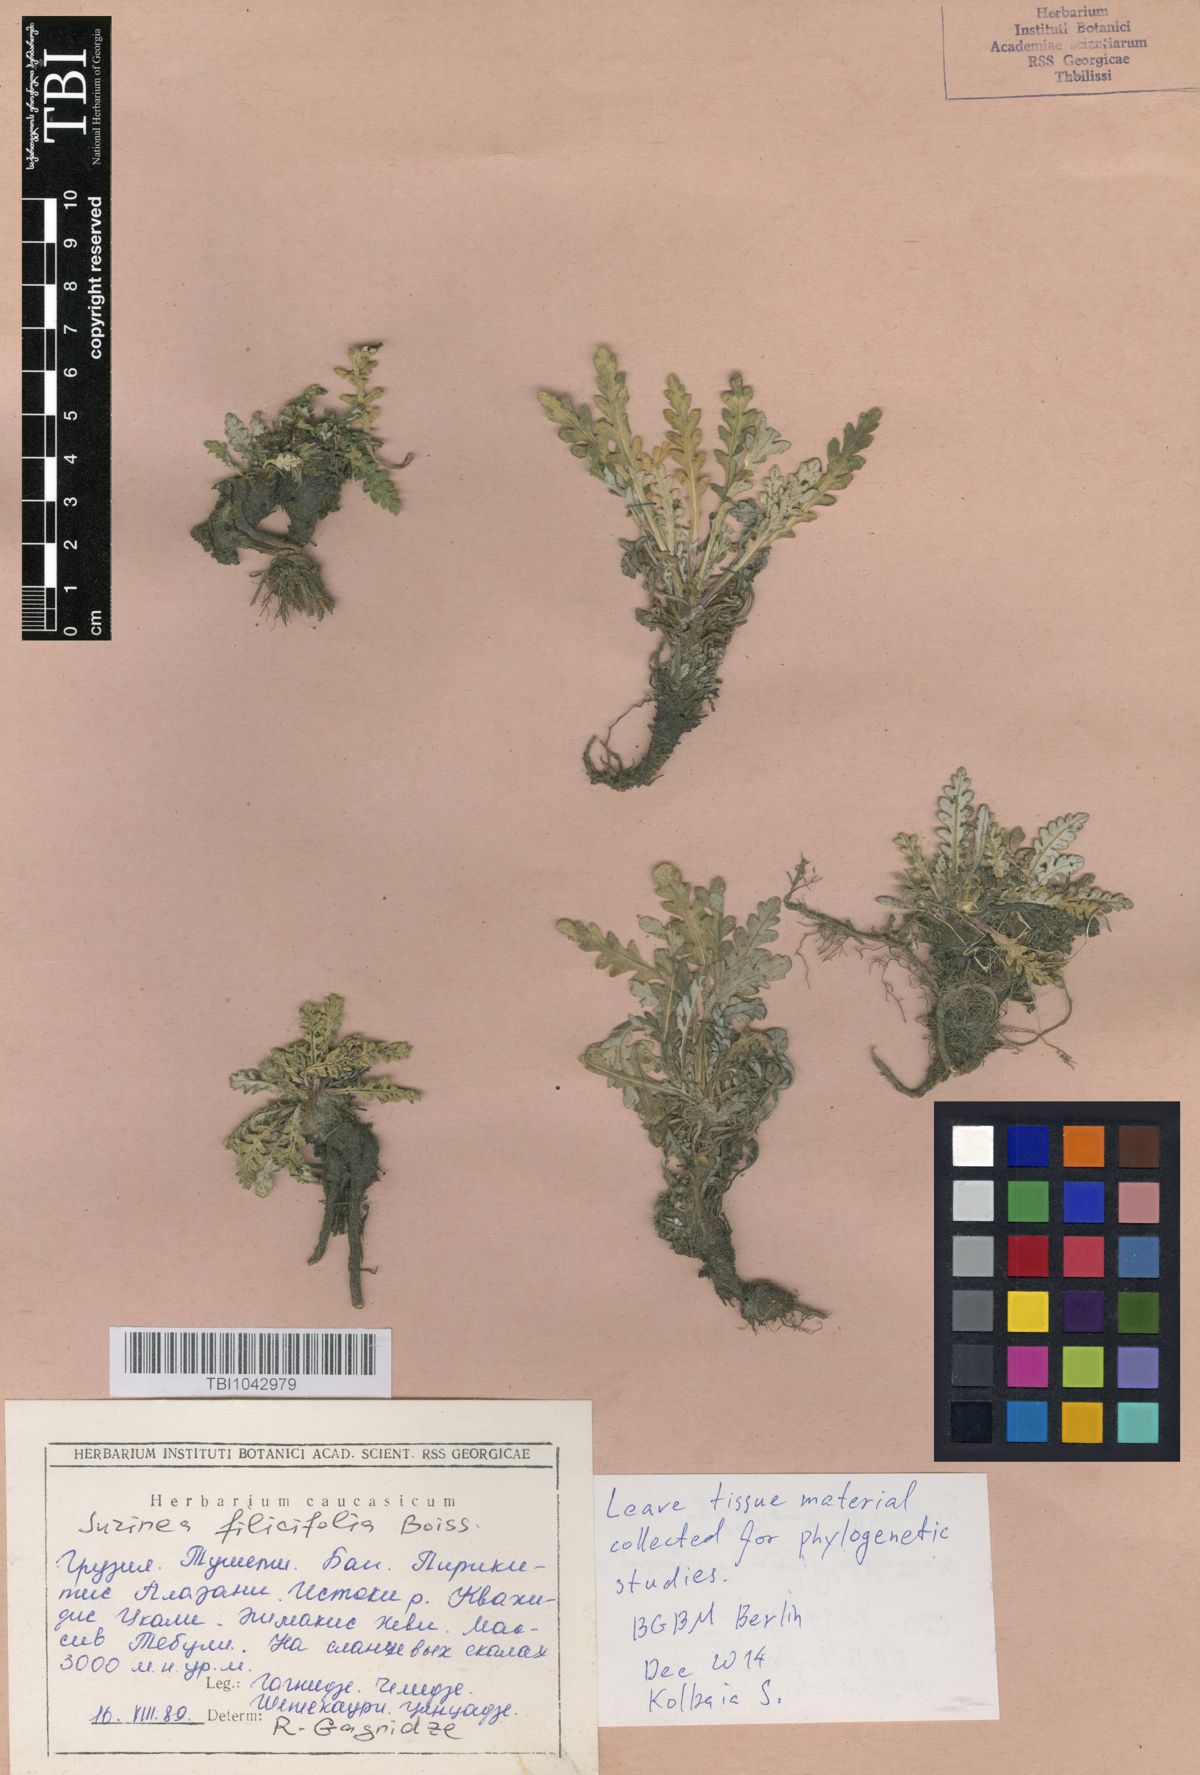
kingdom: Plantae
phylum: Tracheophyta
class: Magnoliopsida
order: Asterales
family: Asteraceae
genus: Jurinea
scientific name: Jurinea filicifolia
